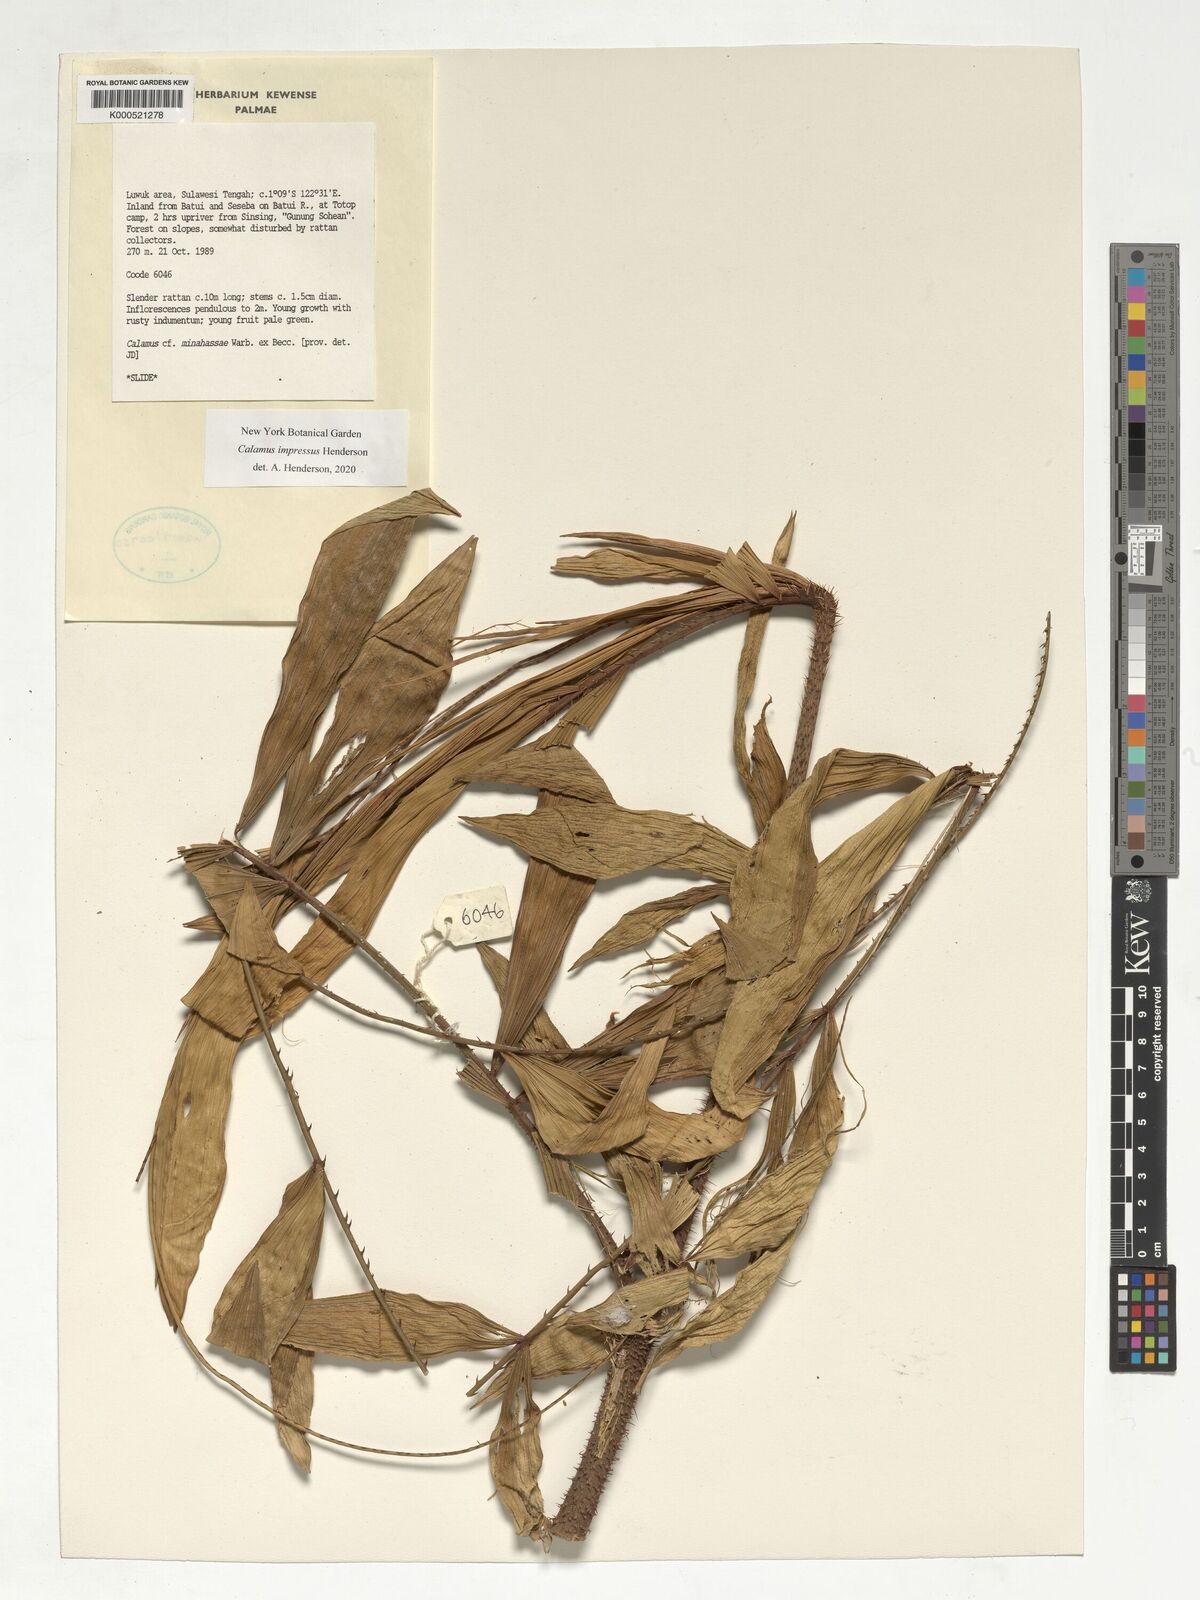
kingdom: Plantae
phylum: Tracheophyta
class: Liliopsida
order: Arecales
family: Arecaceae
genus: Calamus
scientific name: Calamus
